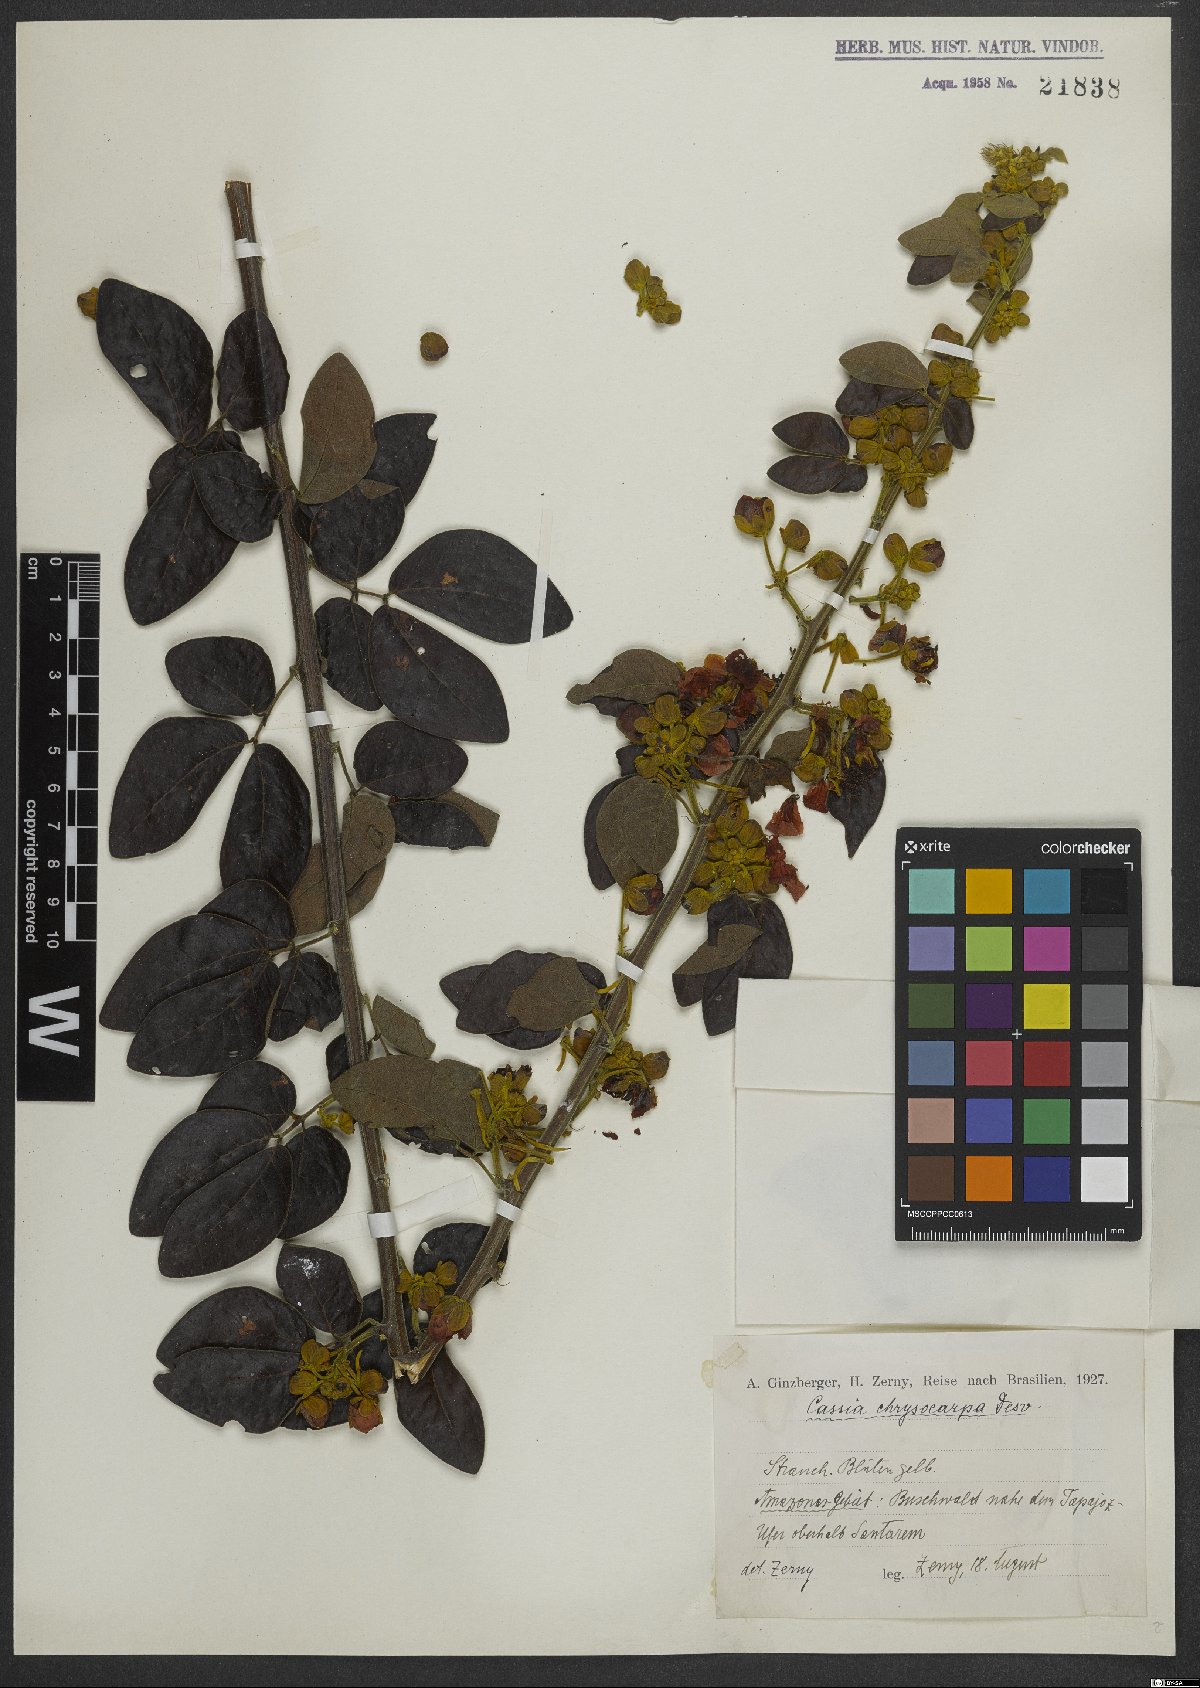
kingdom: Plantae
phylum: Tracheophyta
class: Magnoliopsida
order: Fabales
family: Fabaceae
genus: Senna
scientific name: Senna chrysocarpa
